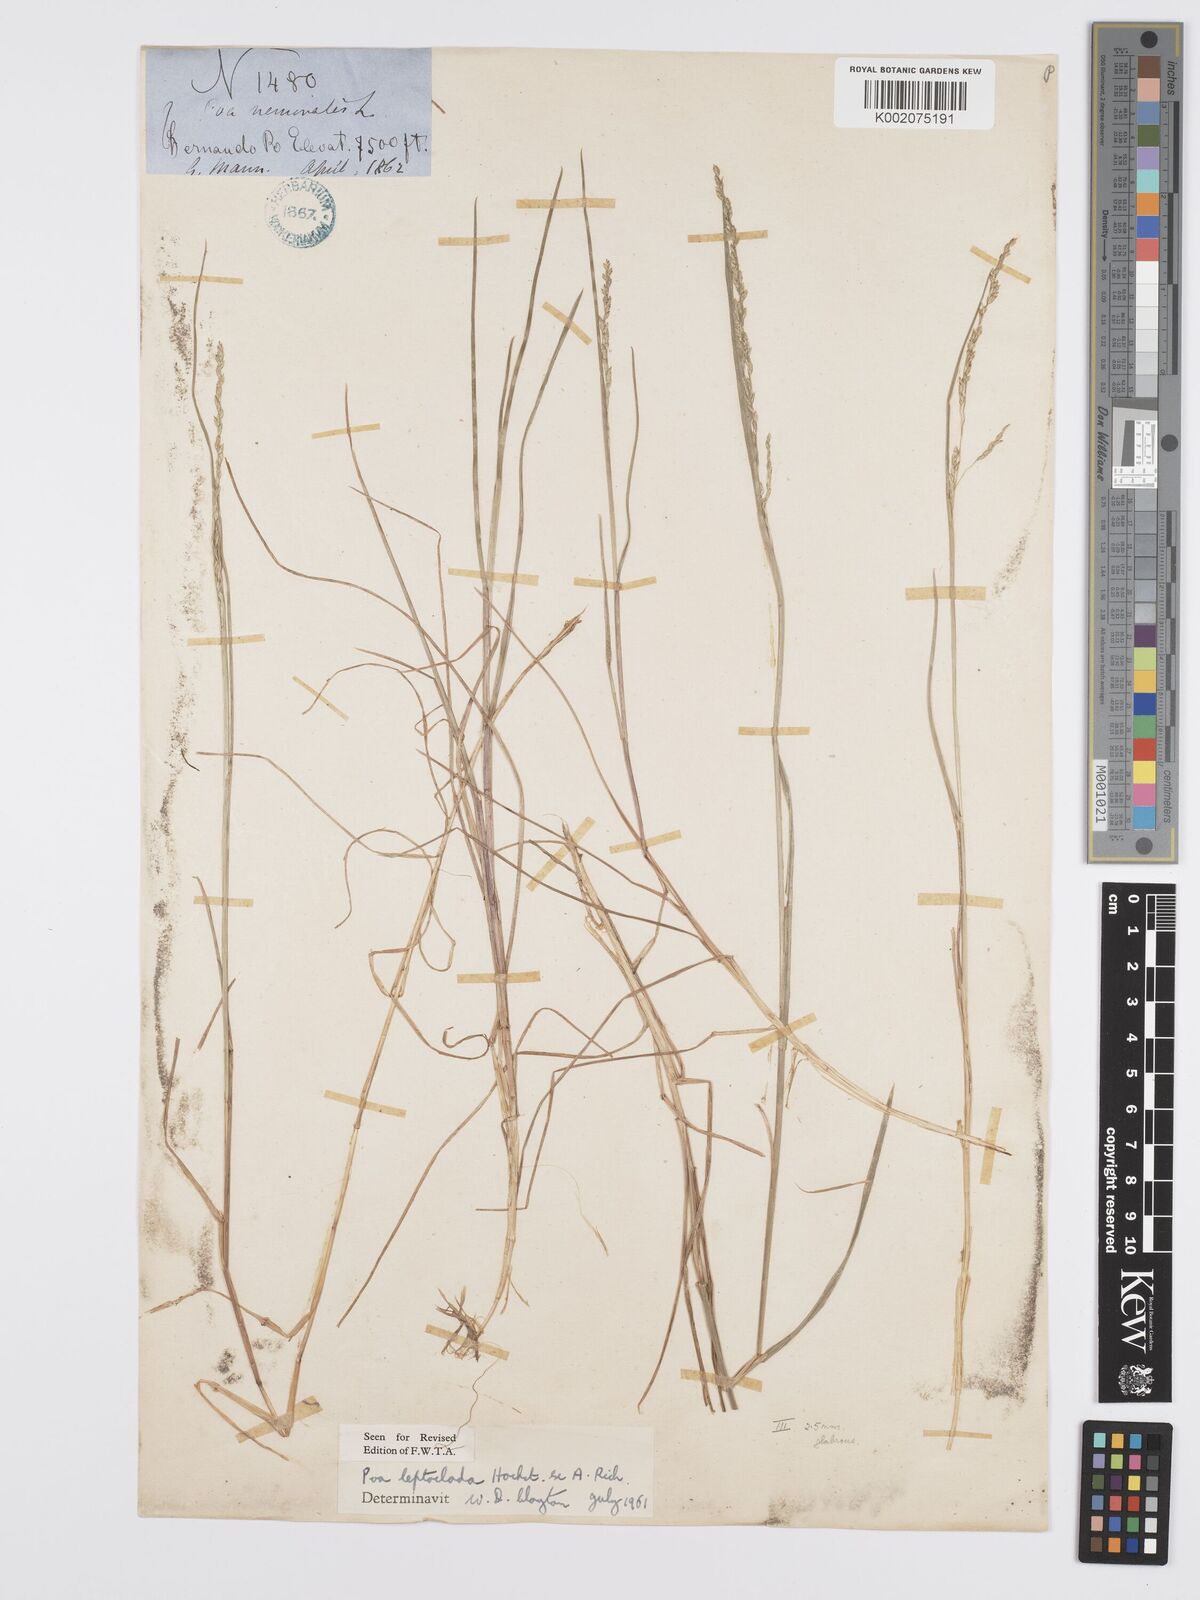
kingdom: Plantae
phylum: Tracheophyta
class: Liliopsida
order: Poales
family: Poaceae
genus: Poa
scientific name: Poa leptoclada
